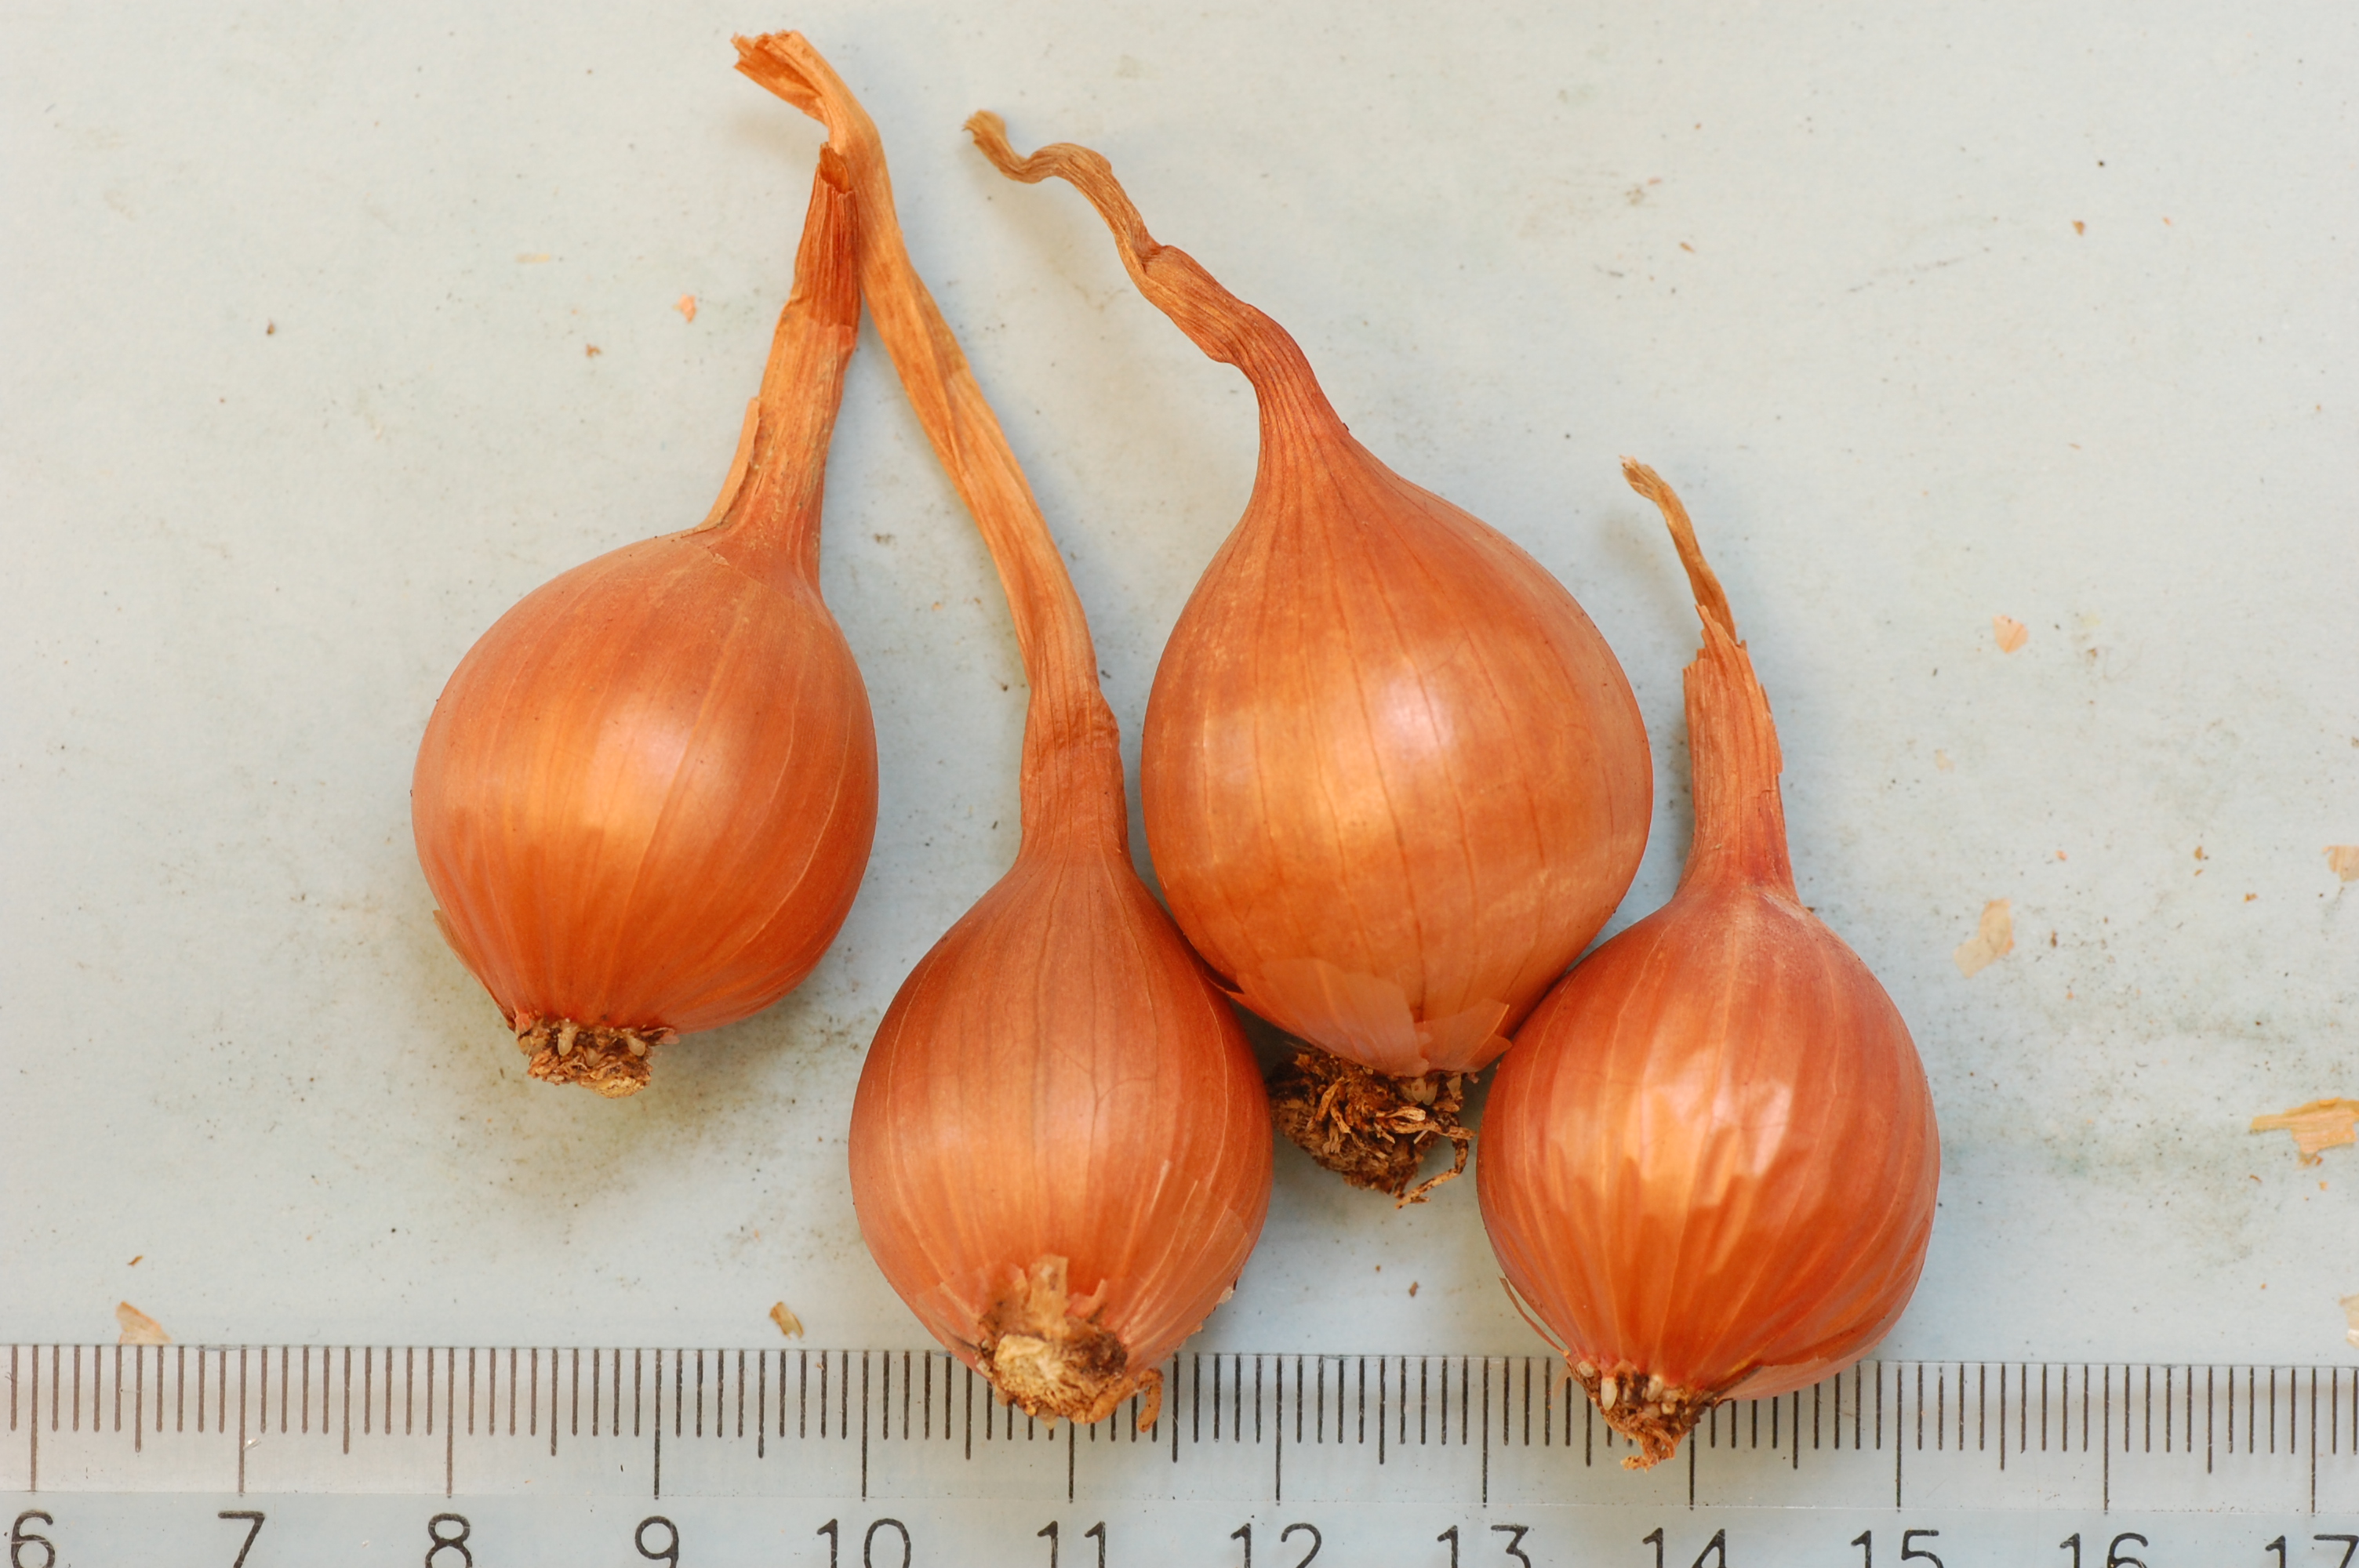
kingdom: Plantae
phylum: Tracheophyta
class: Liliopsida
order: Asparagales
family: Amaryllidaceae
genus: Allium
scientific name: Allium cepa
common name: Onion
